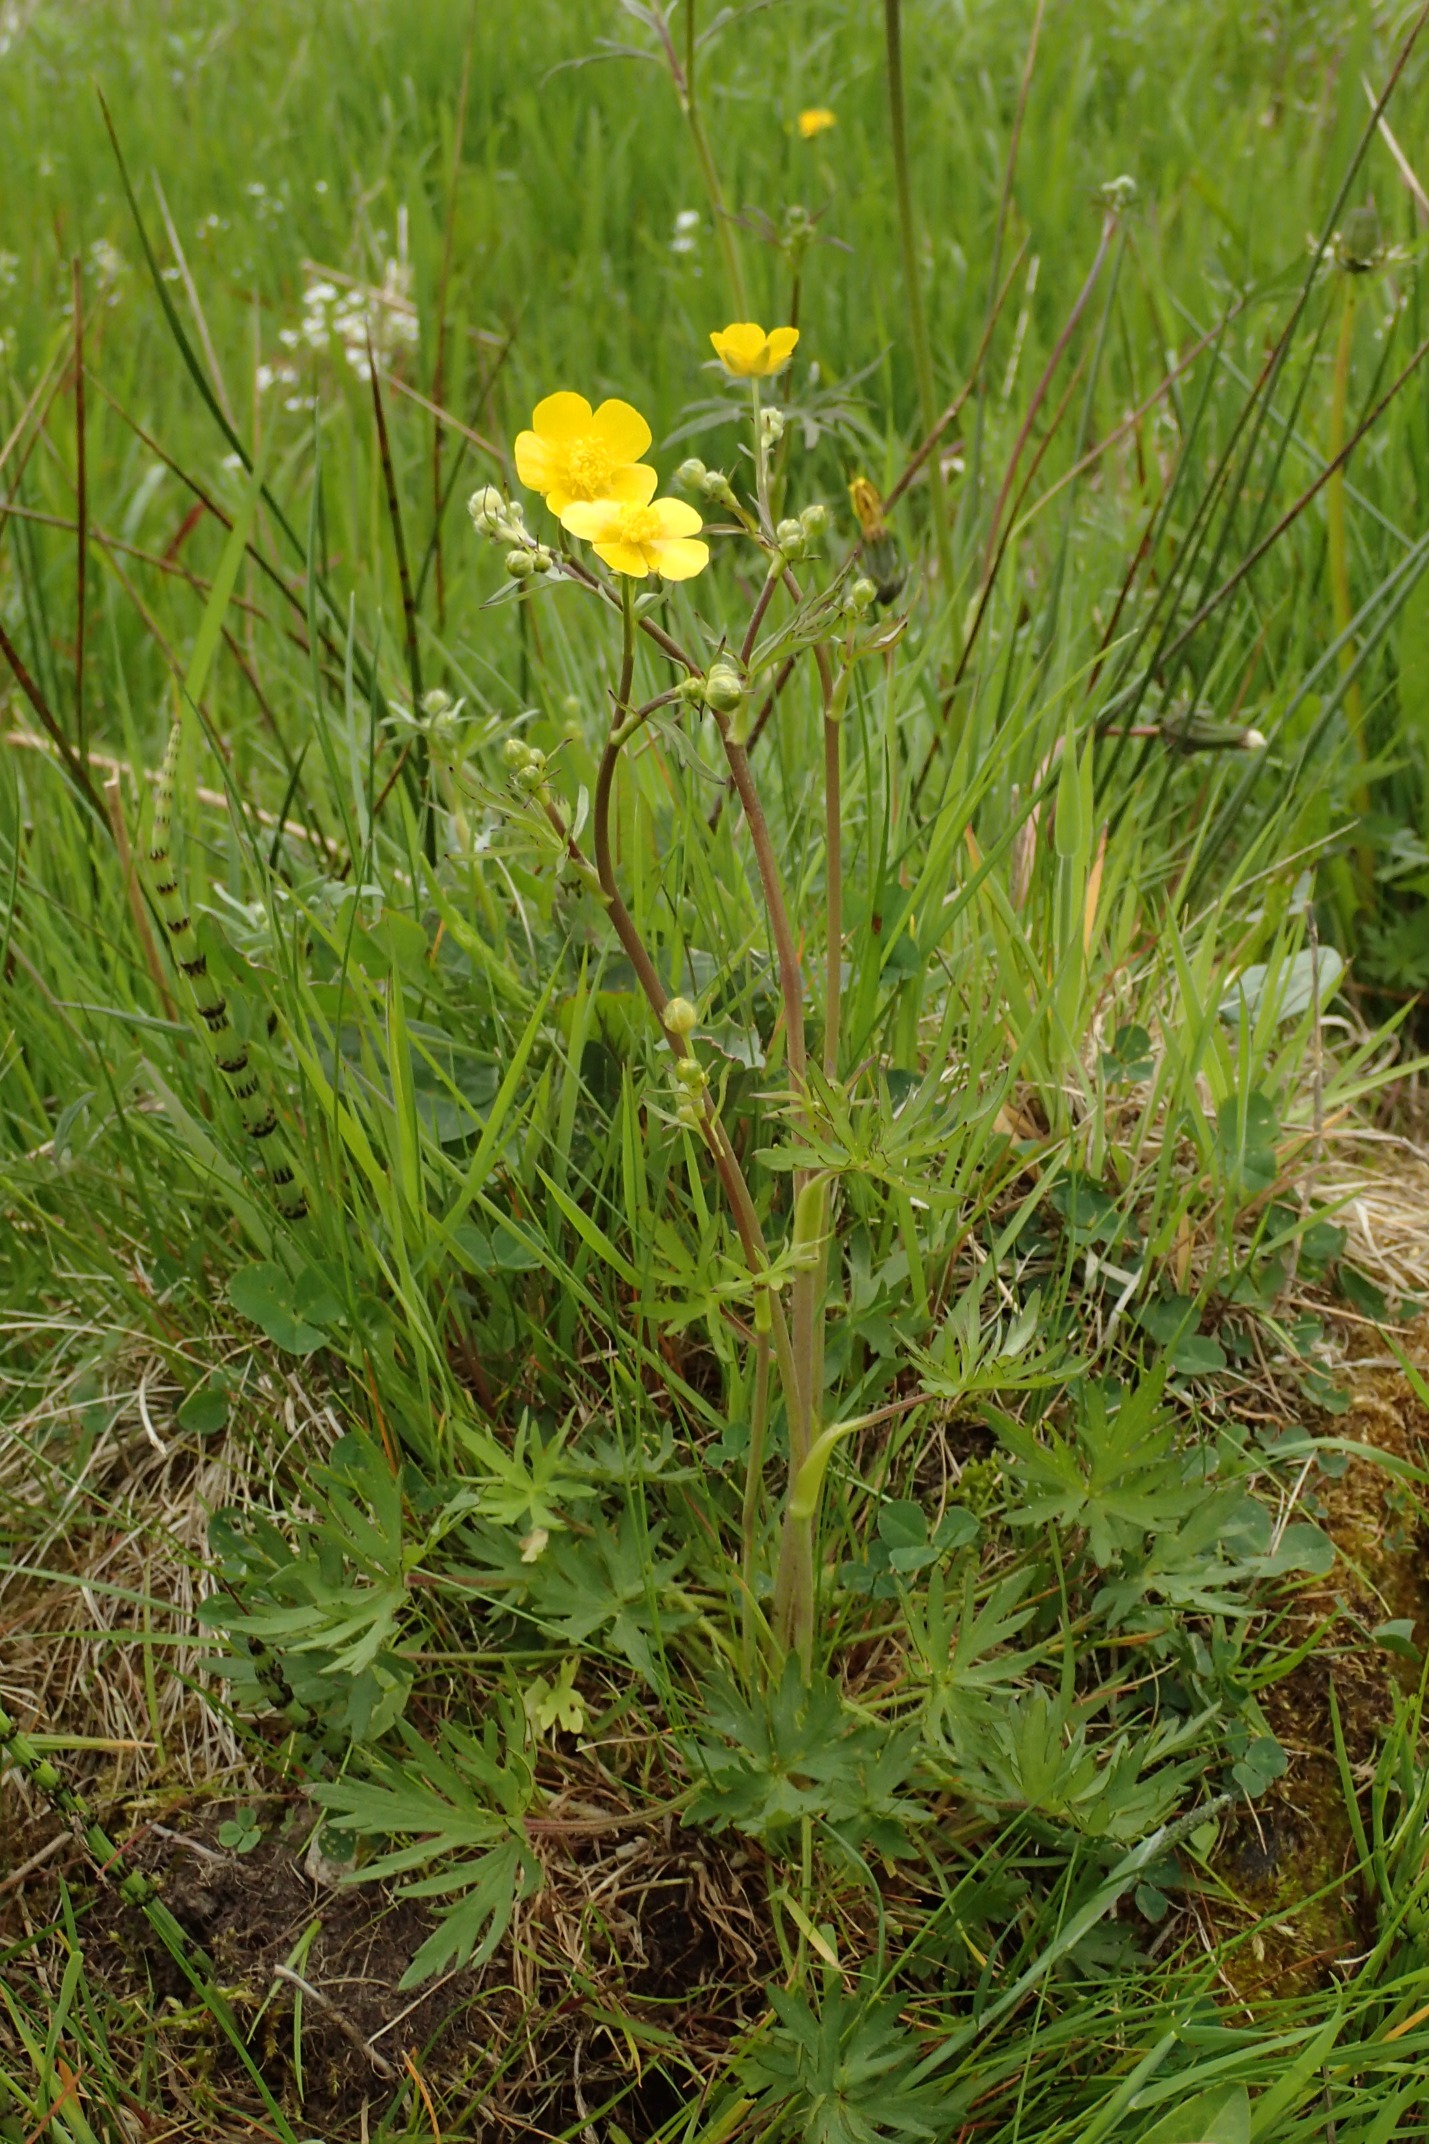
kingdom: Plantae
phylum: Tracheophyta
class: Magnoliopsida
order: Ranunculales
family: Ranunculaceae
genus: Ranunculus
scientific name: Ranunculus acris
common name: Bidende ranunkel
